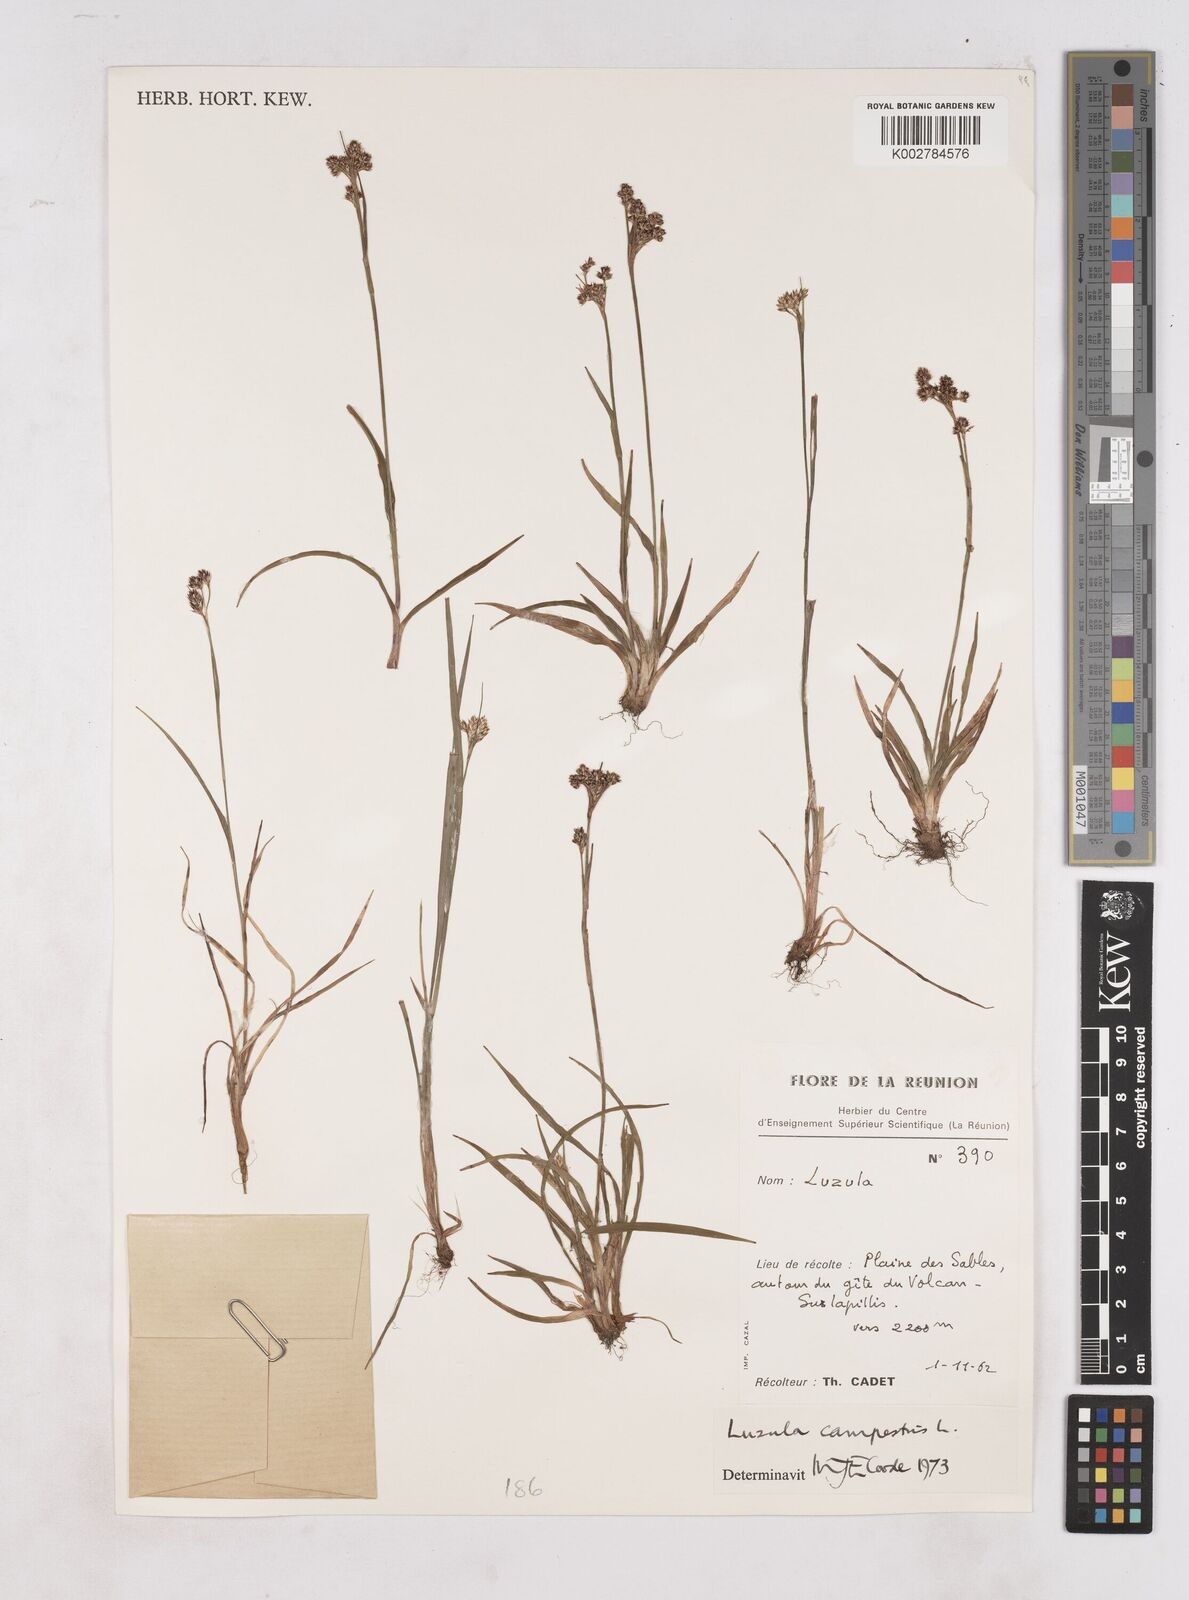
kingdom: Plantae
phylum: Tracheophyta
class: Liliopsida
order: Poales
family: Juncaceae
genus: Luzula
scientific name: Luzula campestris
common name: Field wood-rush
